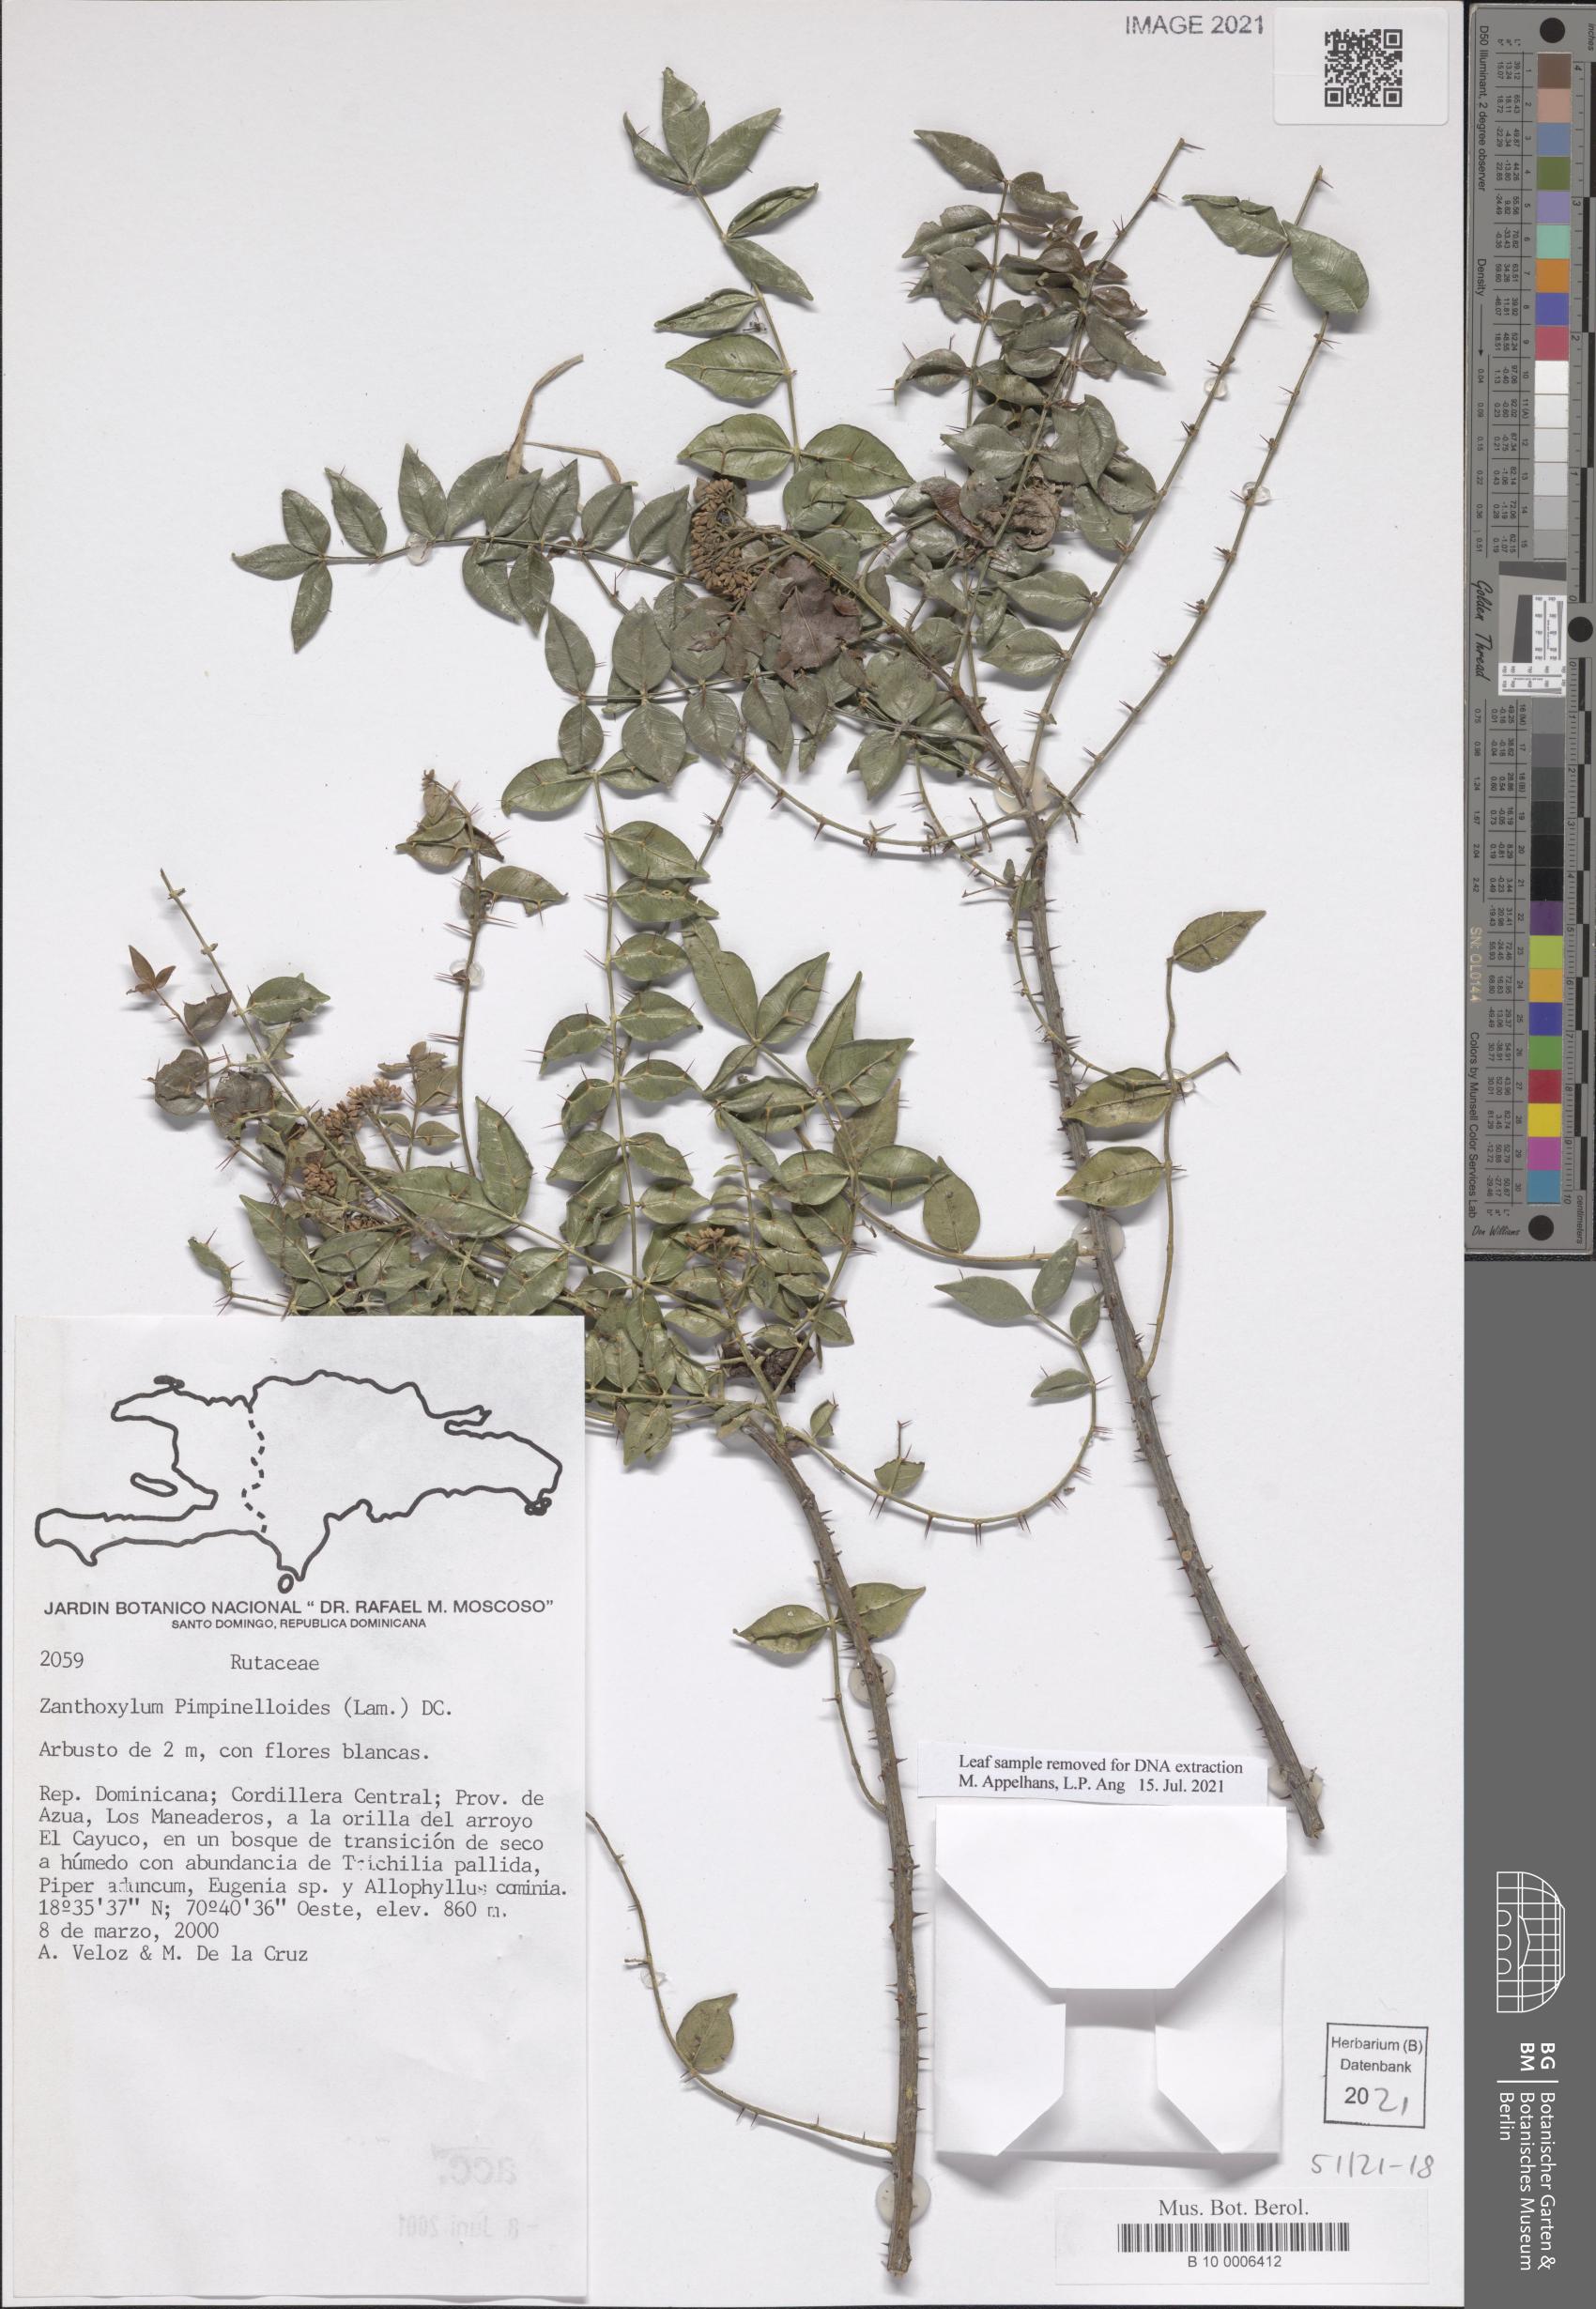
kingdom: Plantae
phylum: Tracheophyta
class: Magnoliopsida
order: Sapindales
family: Rutaceae
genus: Zanthoxylum
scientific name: Zanthoxylum pimpinelloides
